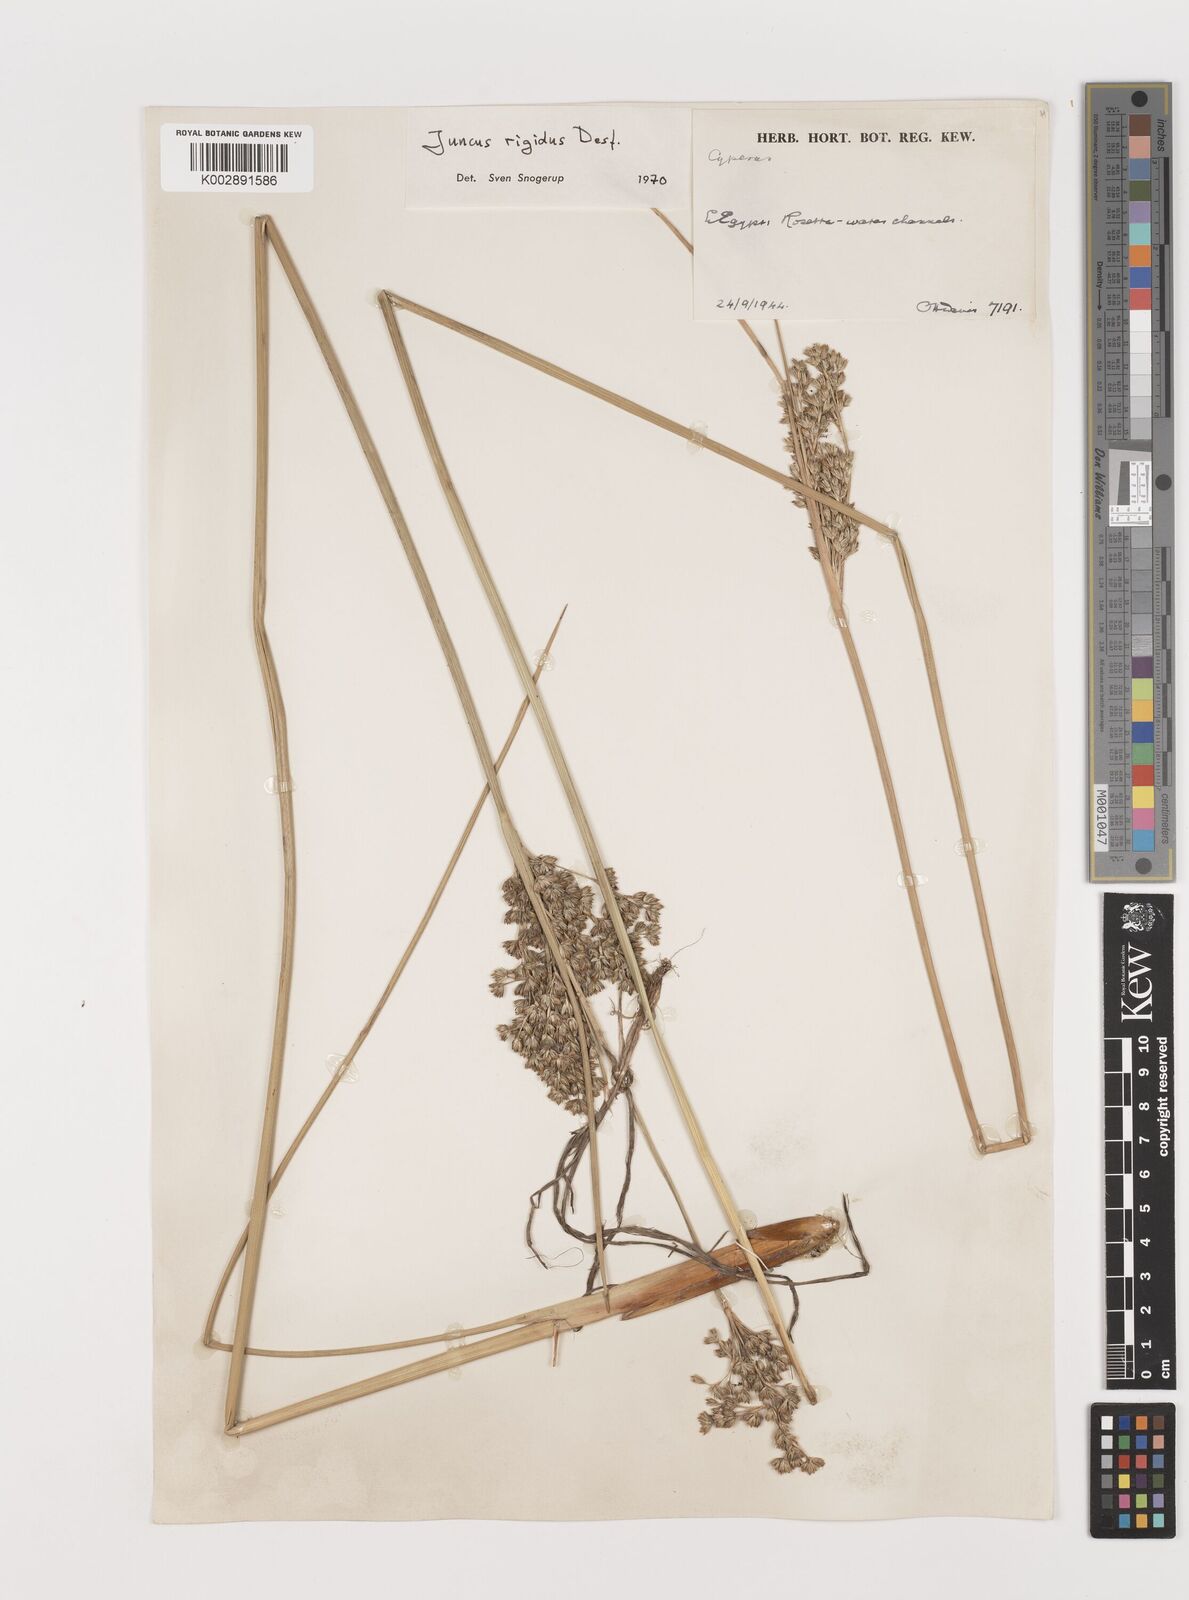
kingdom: Plantae
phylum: Tracheophyta
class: Liliopsida
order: Poales
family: Juncaceae
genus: Juncus
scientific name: Juncus rigidus
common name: Hard sea rush
